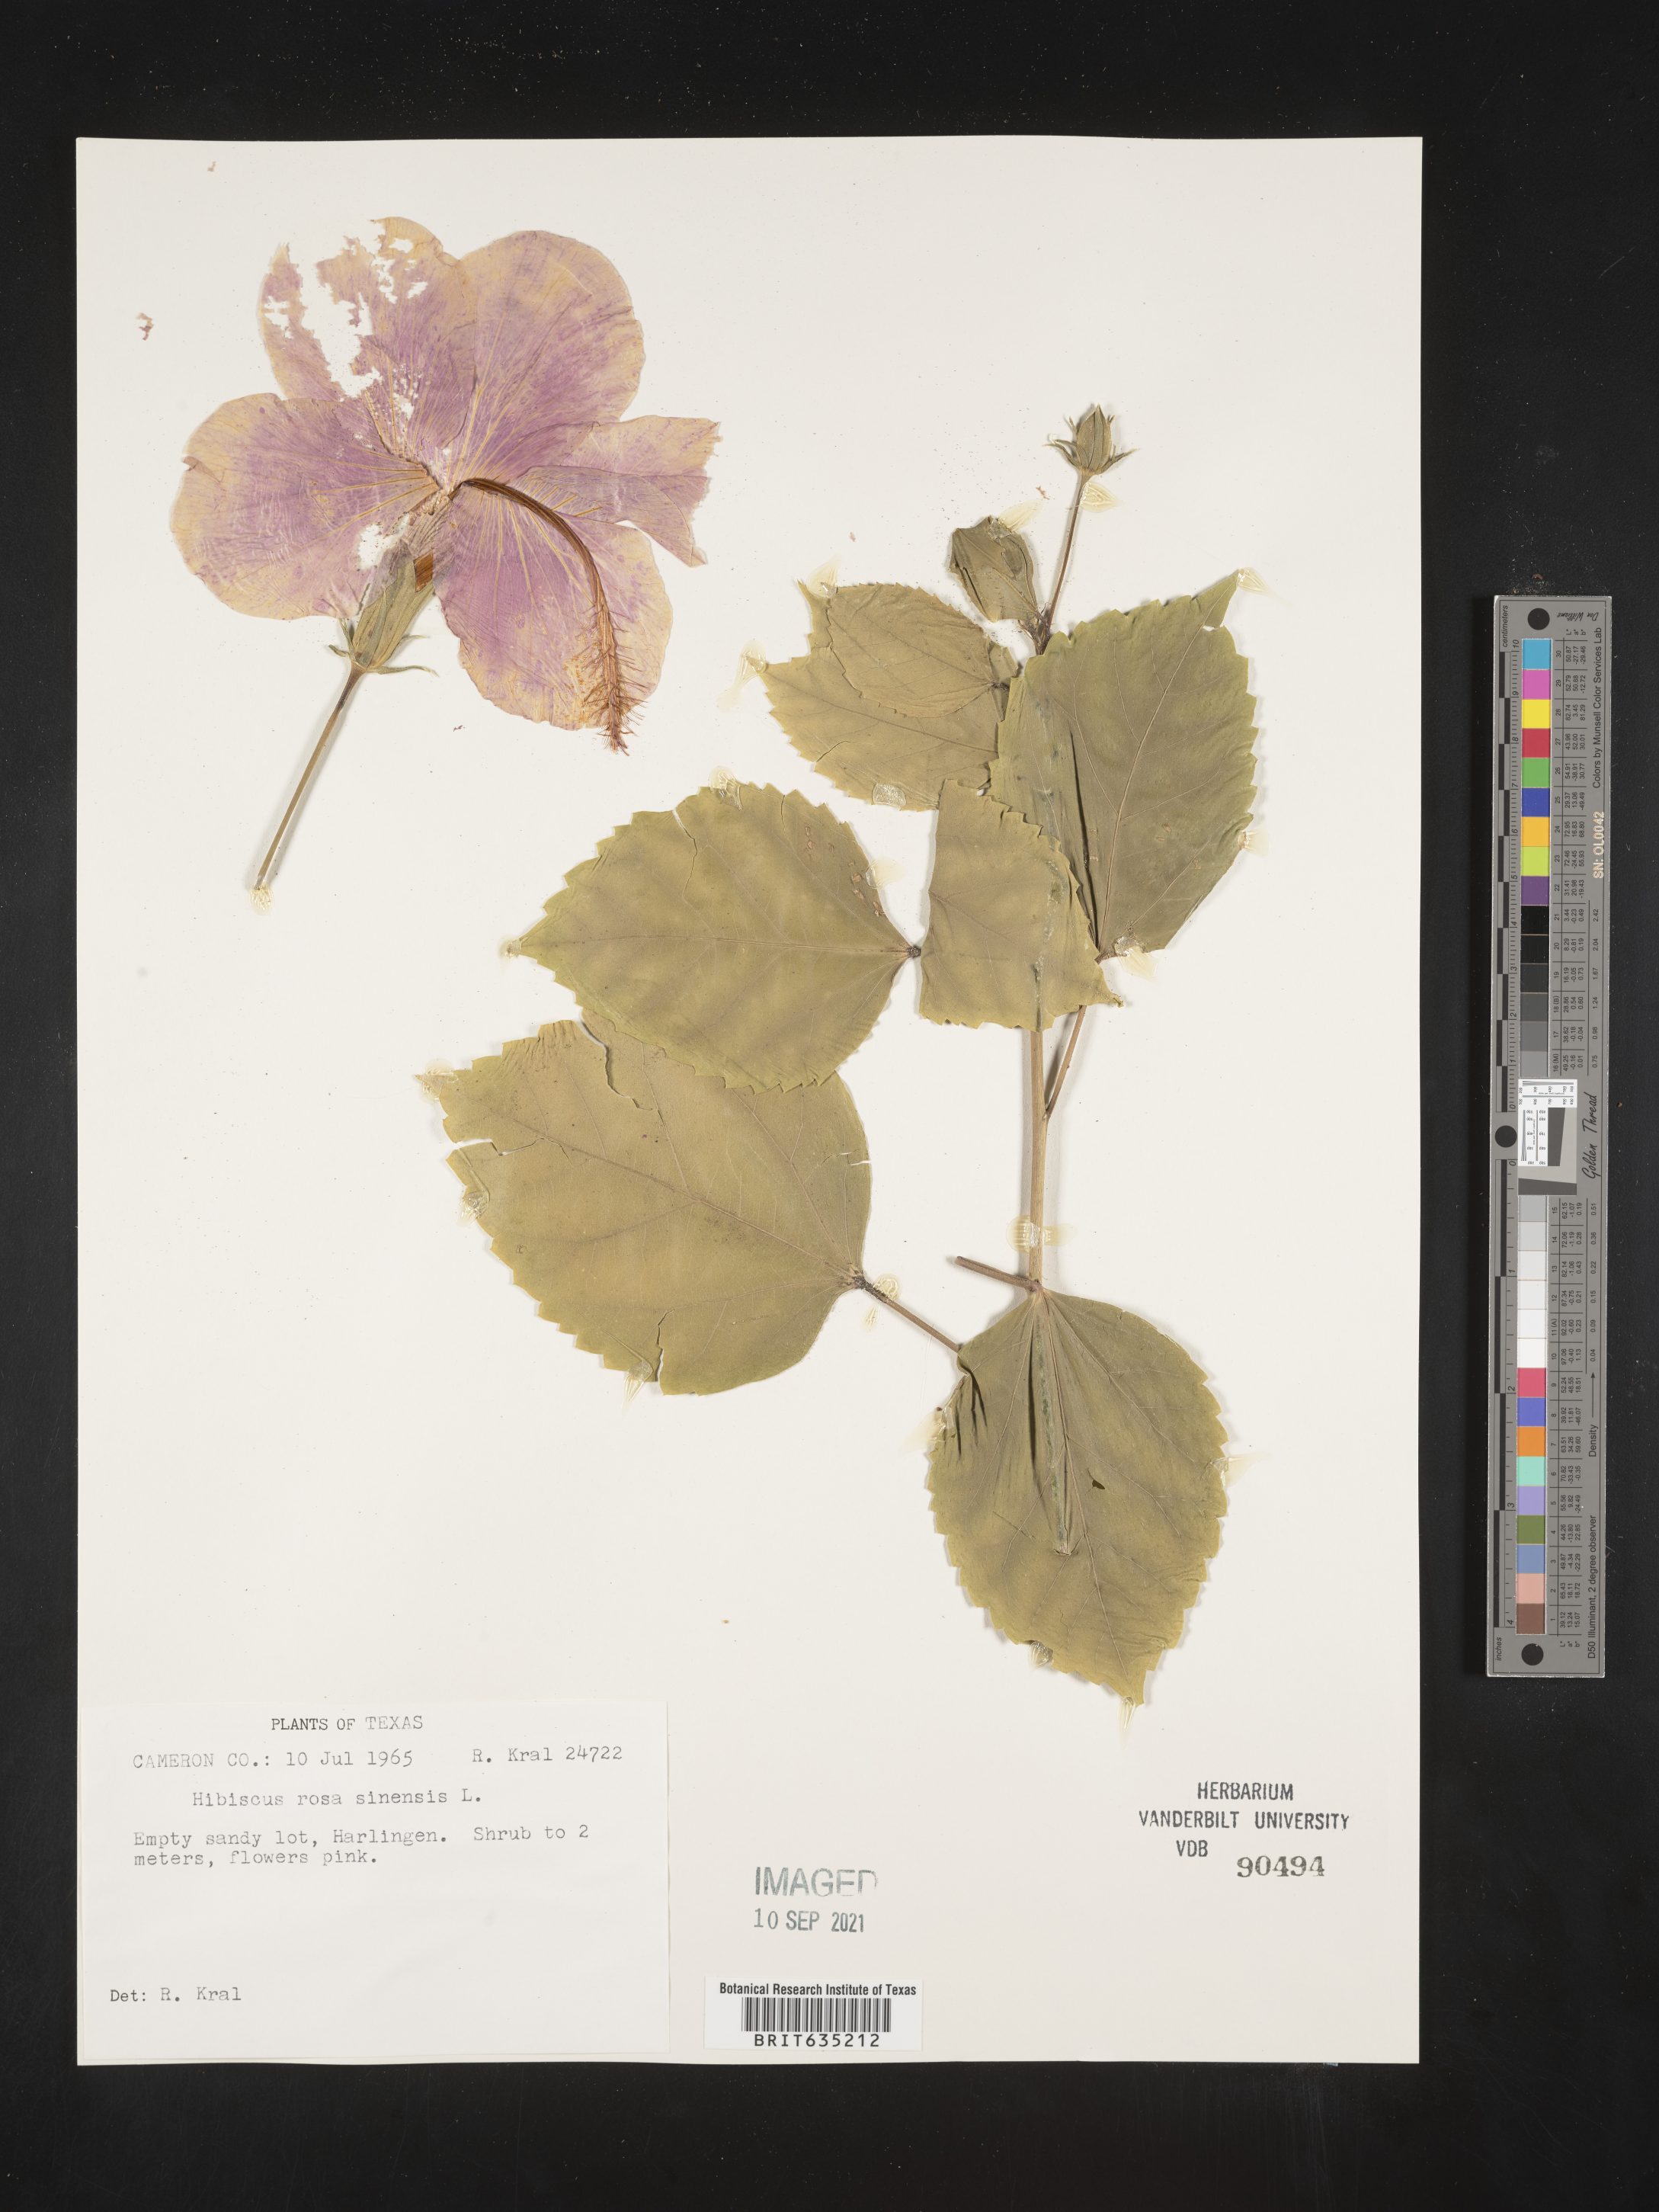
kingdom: Plantae
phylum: Tracheophyta
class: Magnoliopsida
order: Malvales
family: Malvaceae
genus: Hibiscus
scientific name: Hibiscus
